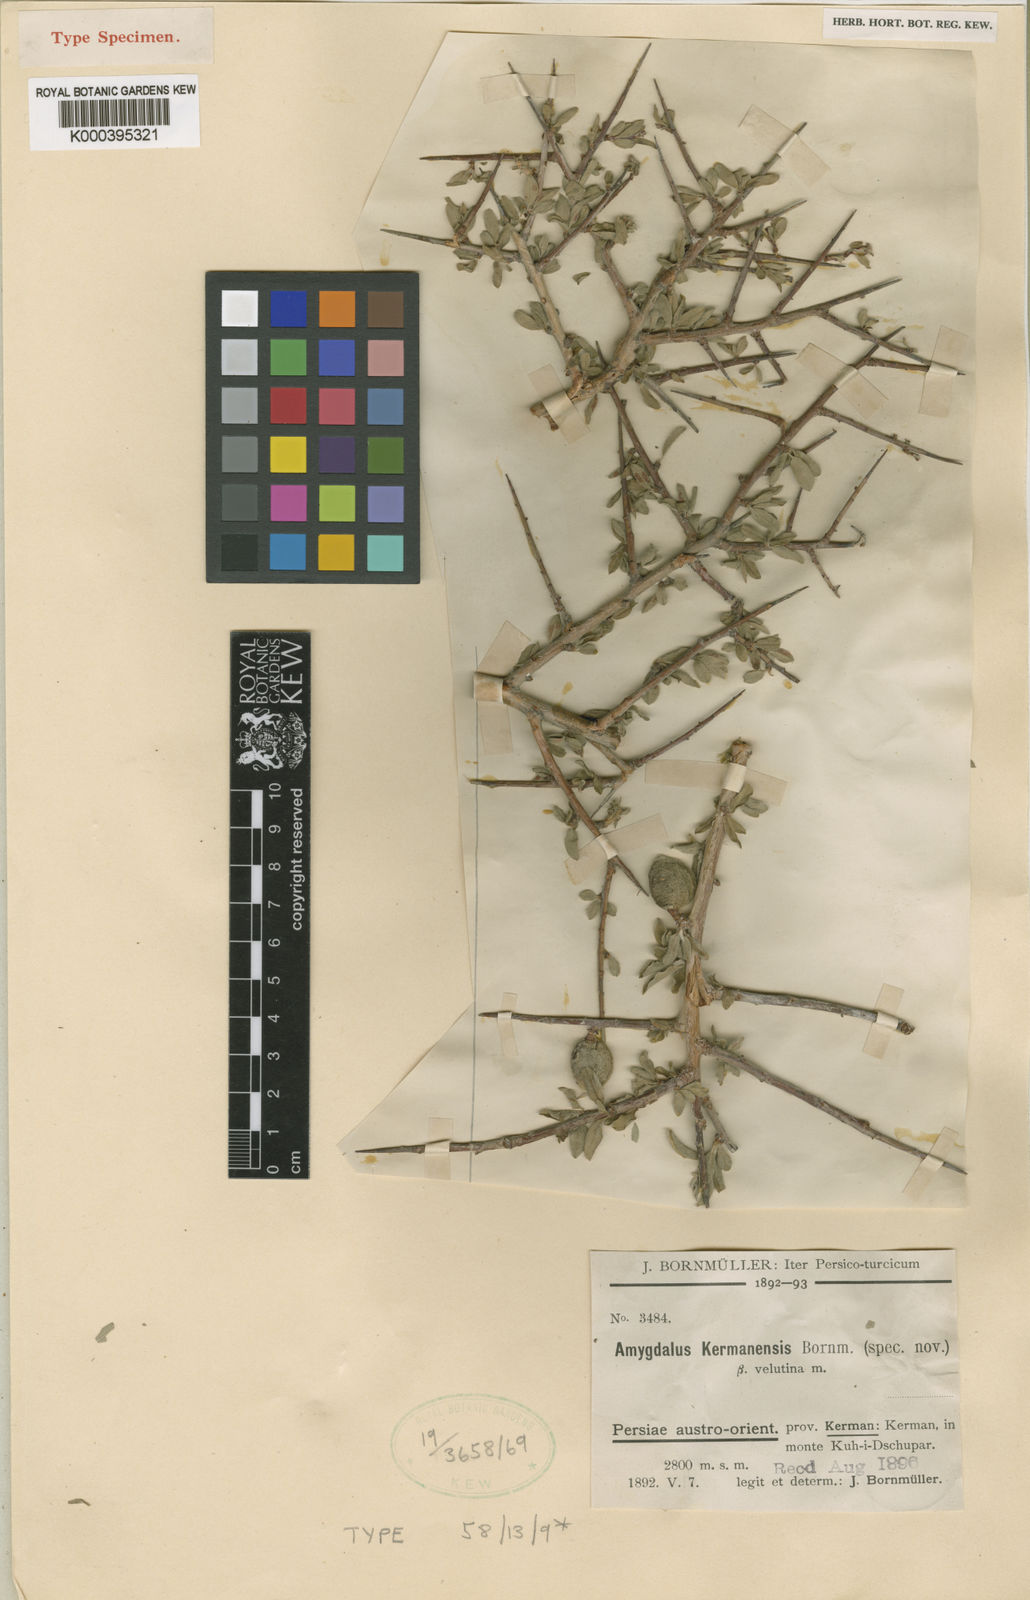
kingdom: Plantae
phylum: Tracheophyta
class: Magnoliopsida
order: Rosales
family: Rosaceae
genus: Prunus
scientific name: Prunus
